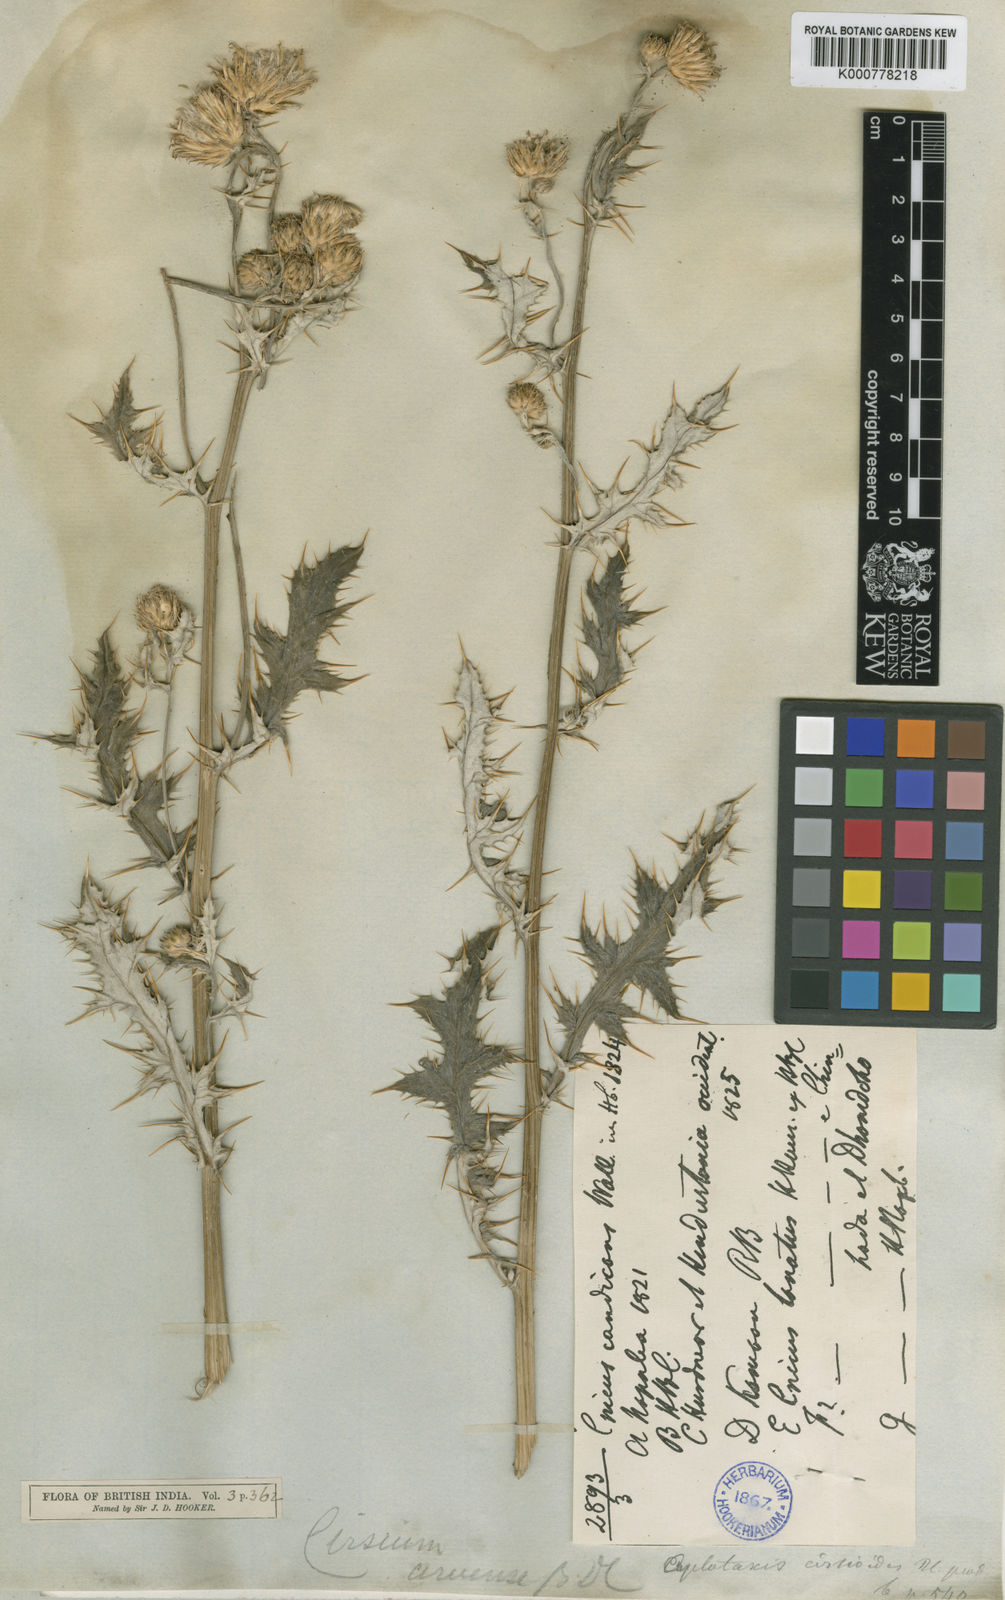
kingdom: Plantae
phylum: Tracheophyta
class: Magnoliopsida
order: Asterales
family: Asteraceae
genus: Cirsium
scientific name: Cirsium
